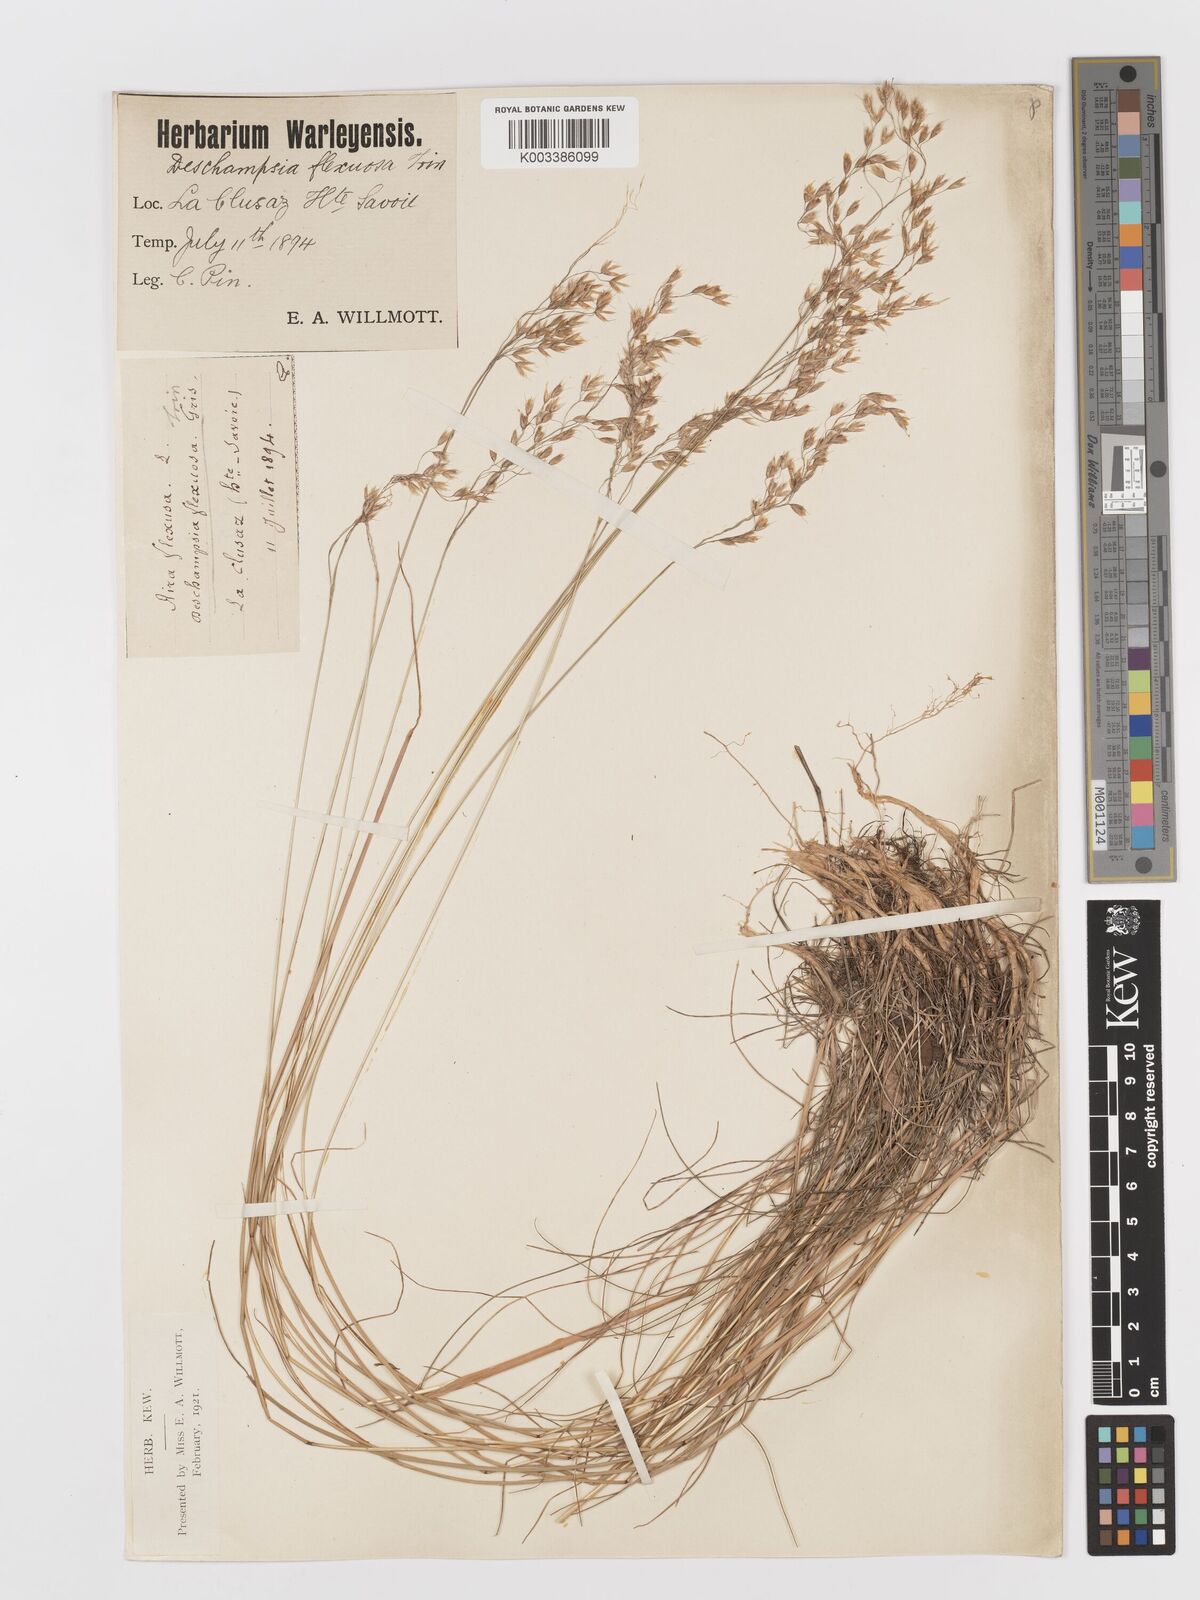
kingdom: Plantae
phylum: Tracheophyta
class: Liliopsida
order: Poales
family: Poaceae
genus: Avenella
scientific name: Avenella flexuosa
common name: Wavy hairgrass
